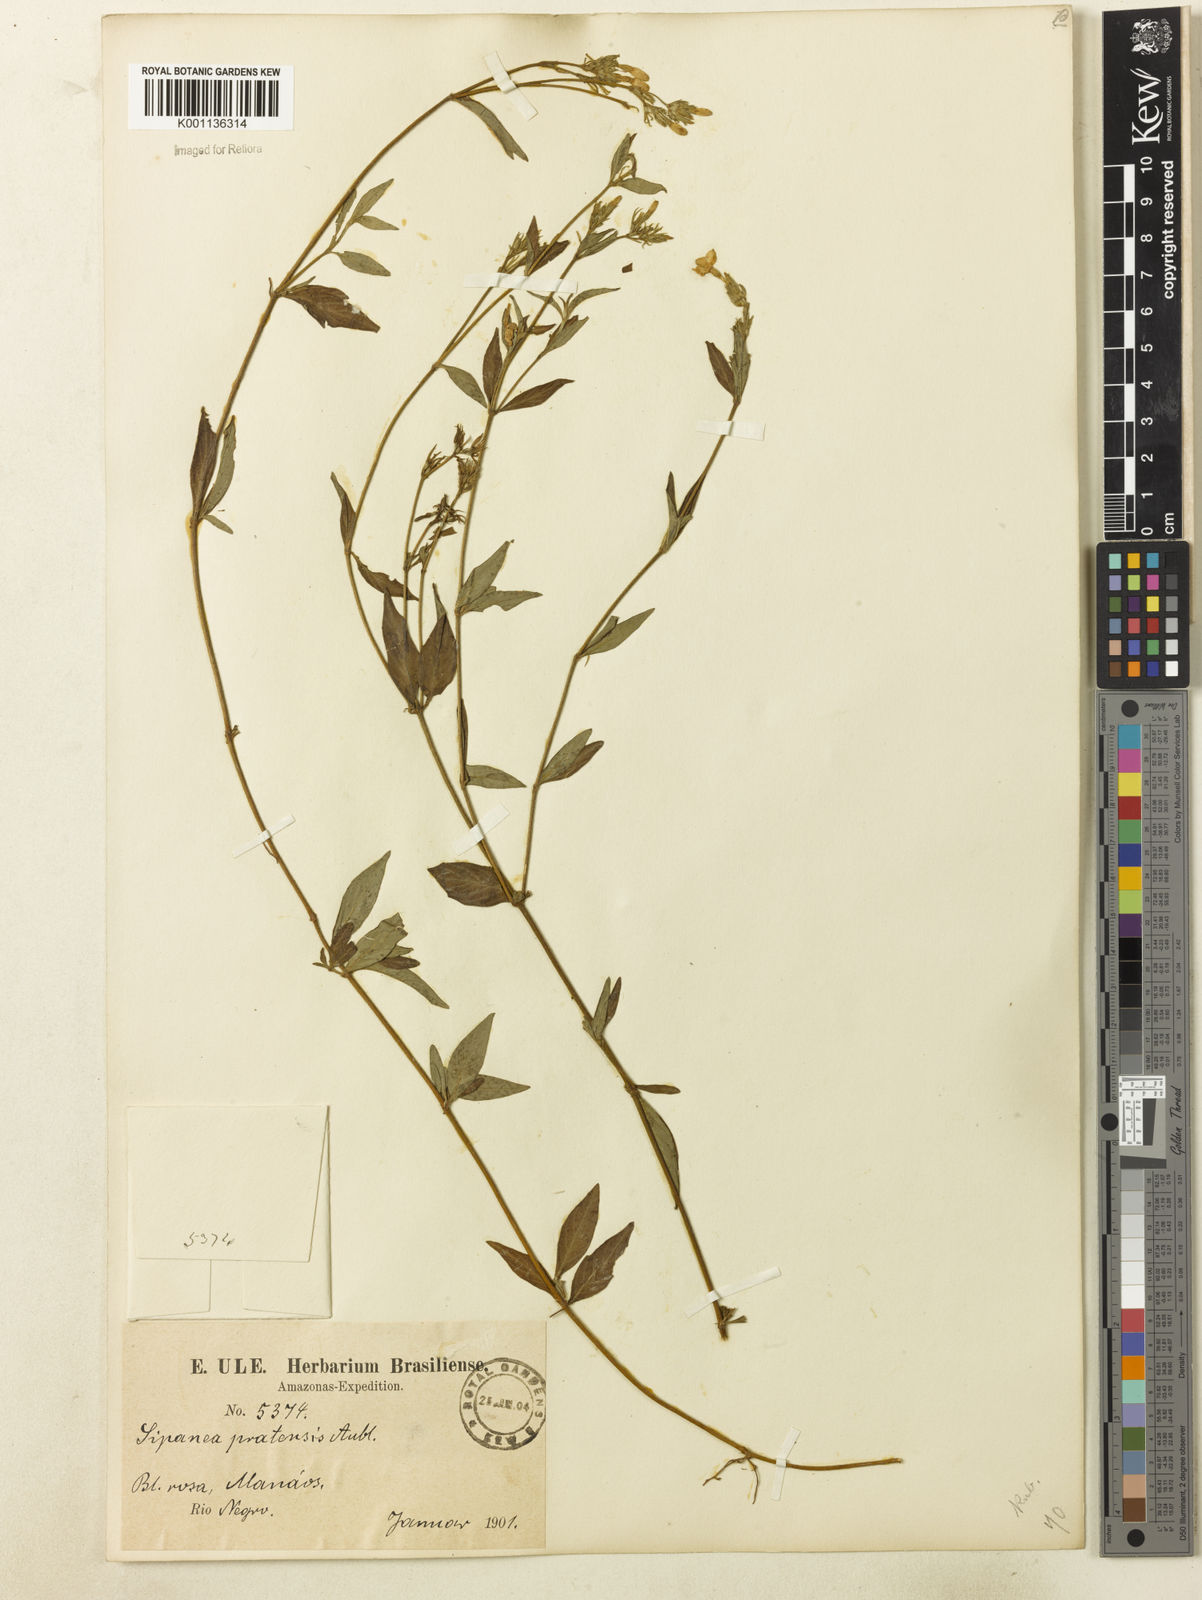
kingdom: Plantae
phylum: Tracheophyta
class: Magnoliopsida
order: Gentianales
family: Rubiaceae
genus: Sipanea
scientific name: Sipanea pratensis
